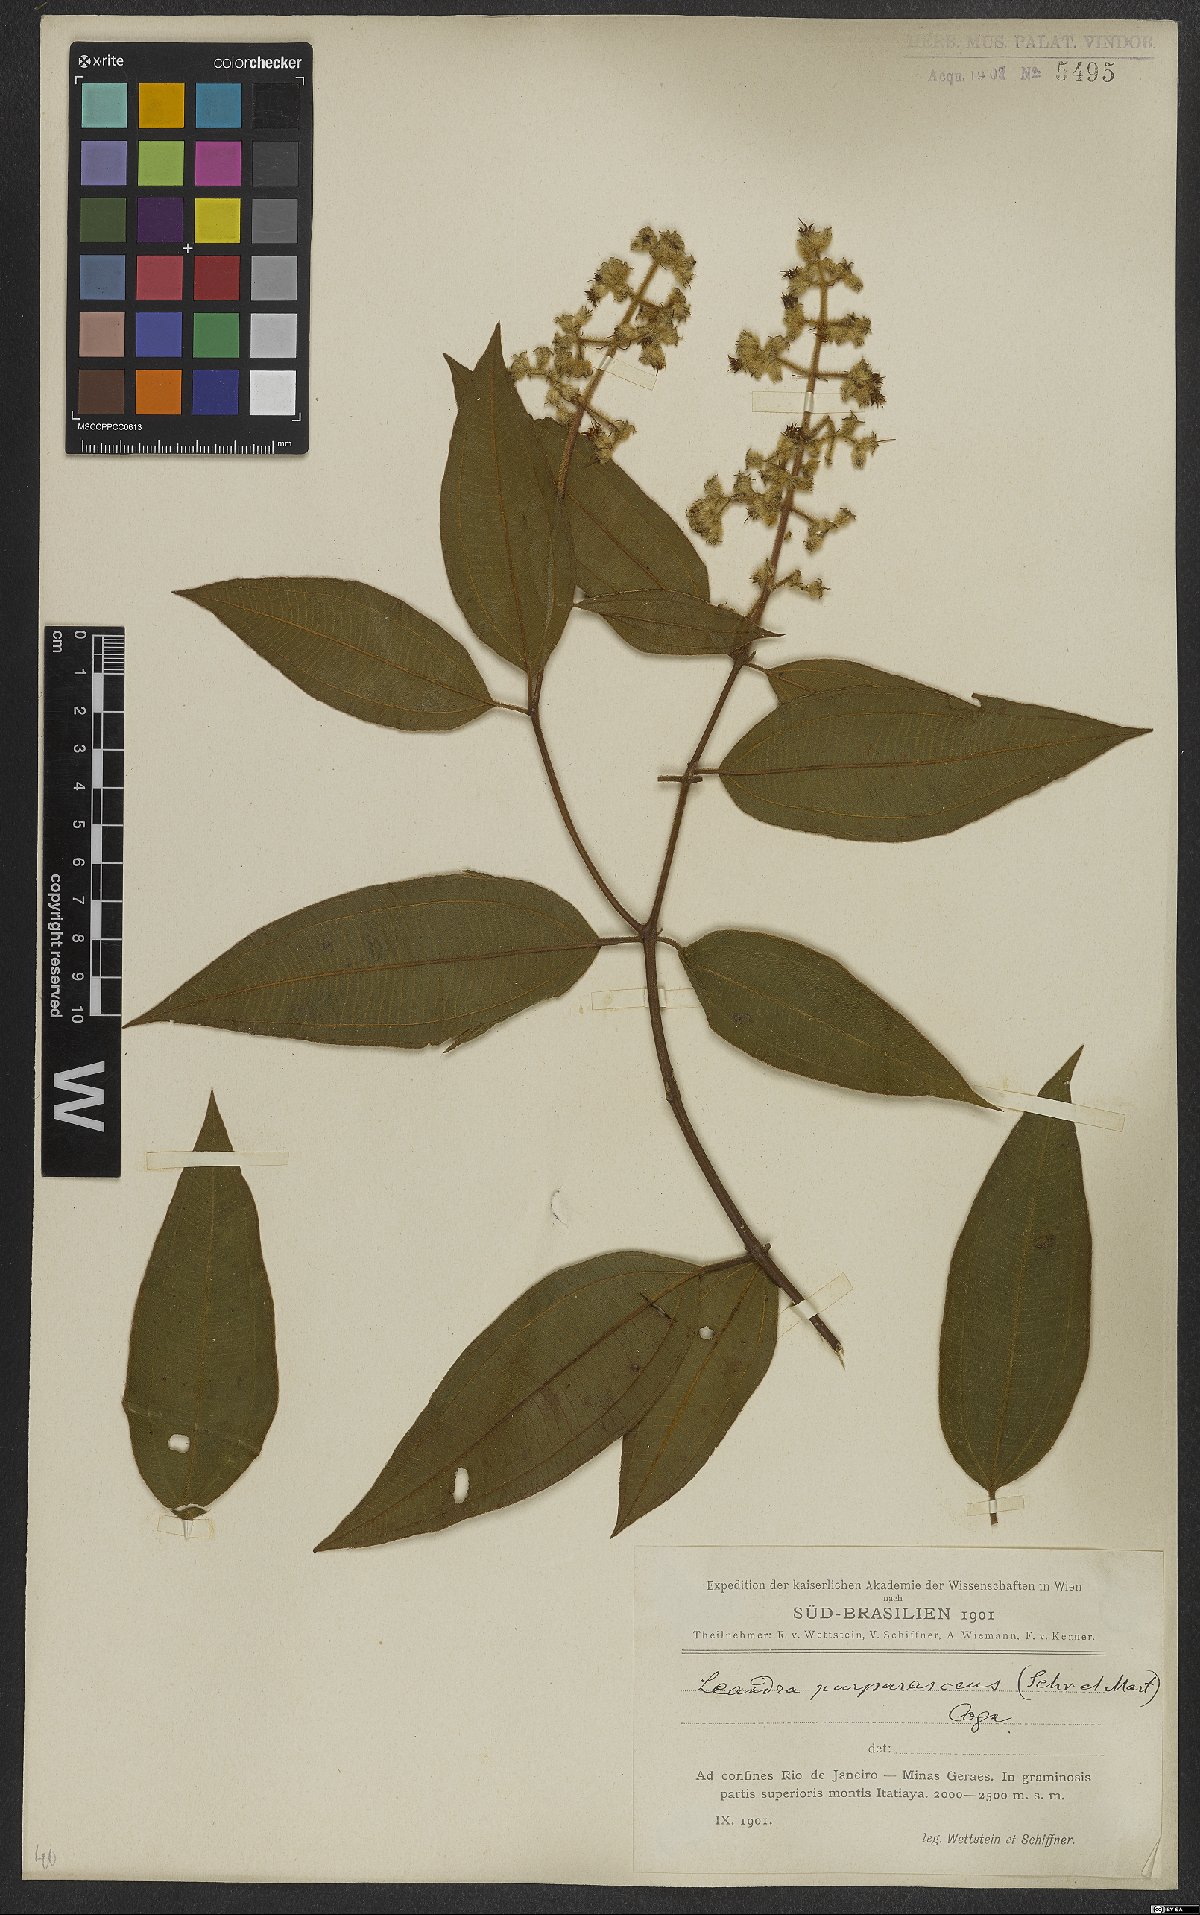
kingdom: Plantae
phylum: Tracheophyta
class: Magnoliopsida
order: Myrtales
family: Melastomataceae
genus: Miconia
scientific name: Miconia microstachya
